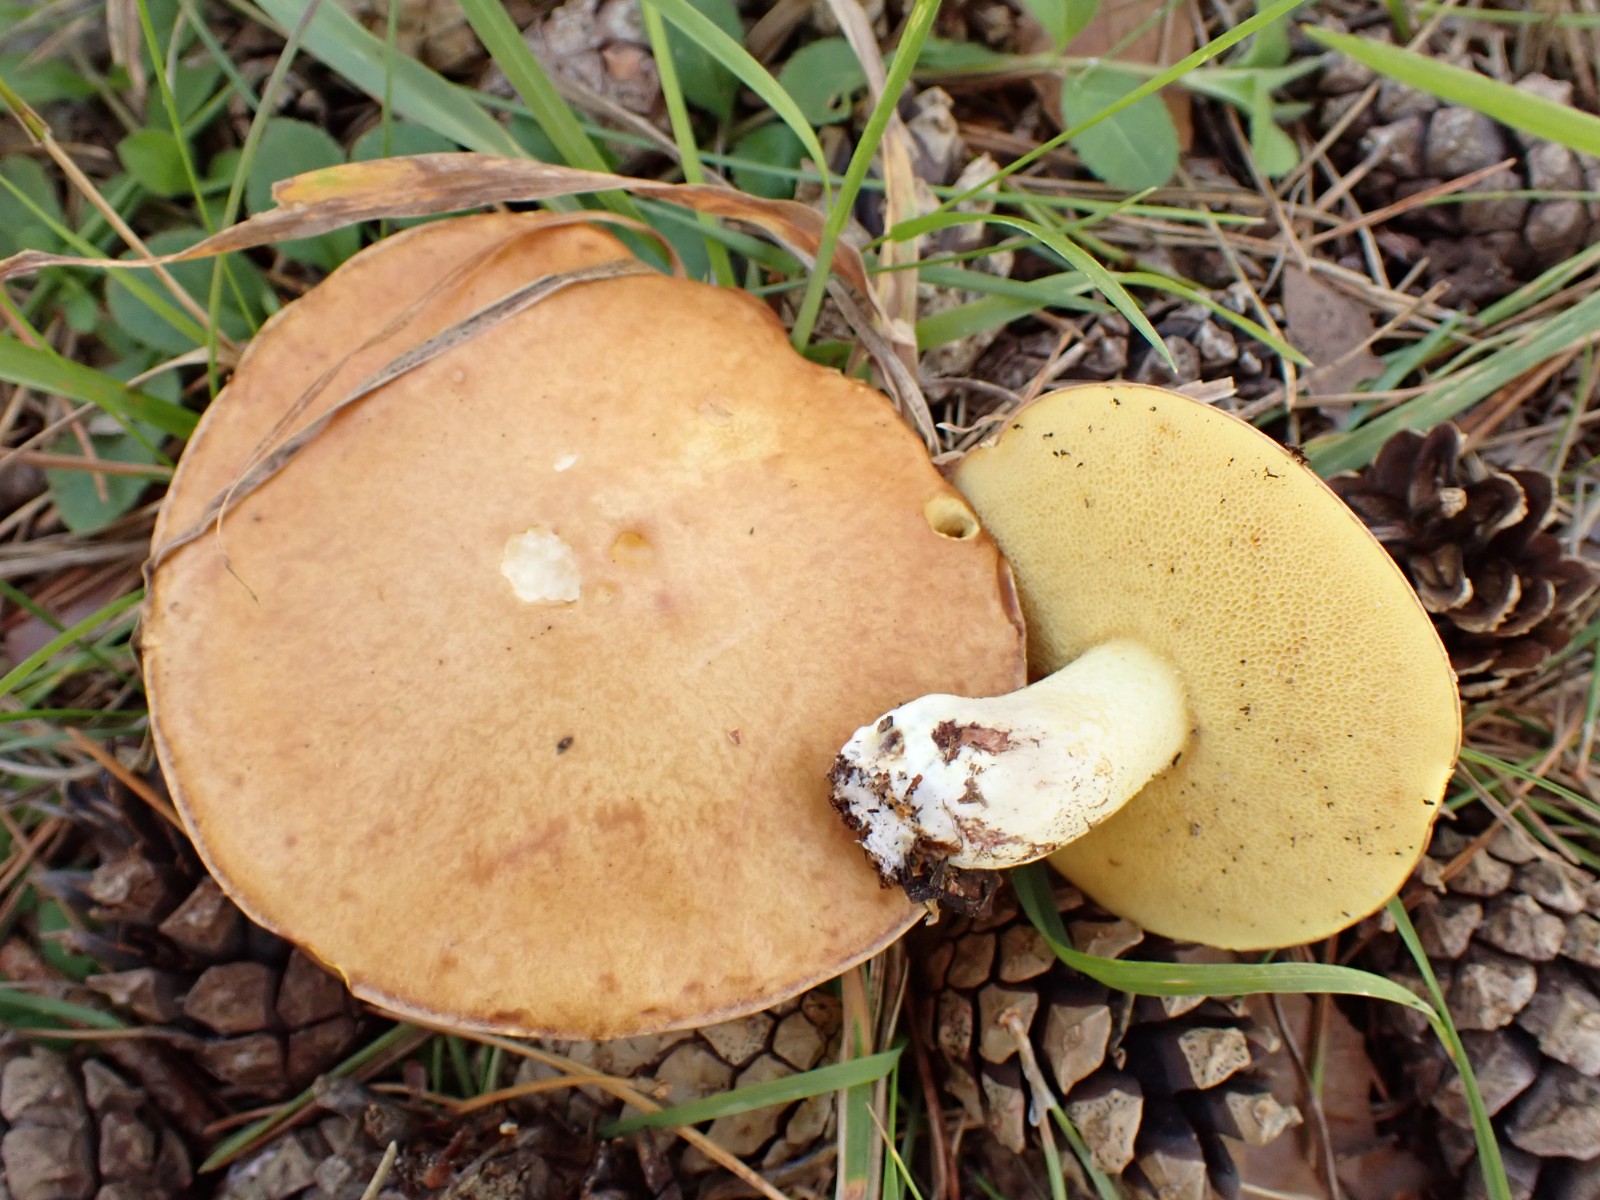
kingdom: Fungi
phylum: Basidiomycota
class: Agaricomycetes
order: Boletales
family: Suillaceae
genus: Suillus
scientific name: Suillus granulatus
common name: kornet slimrørhat
